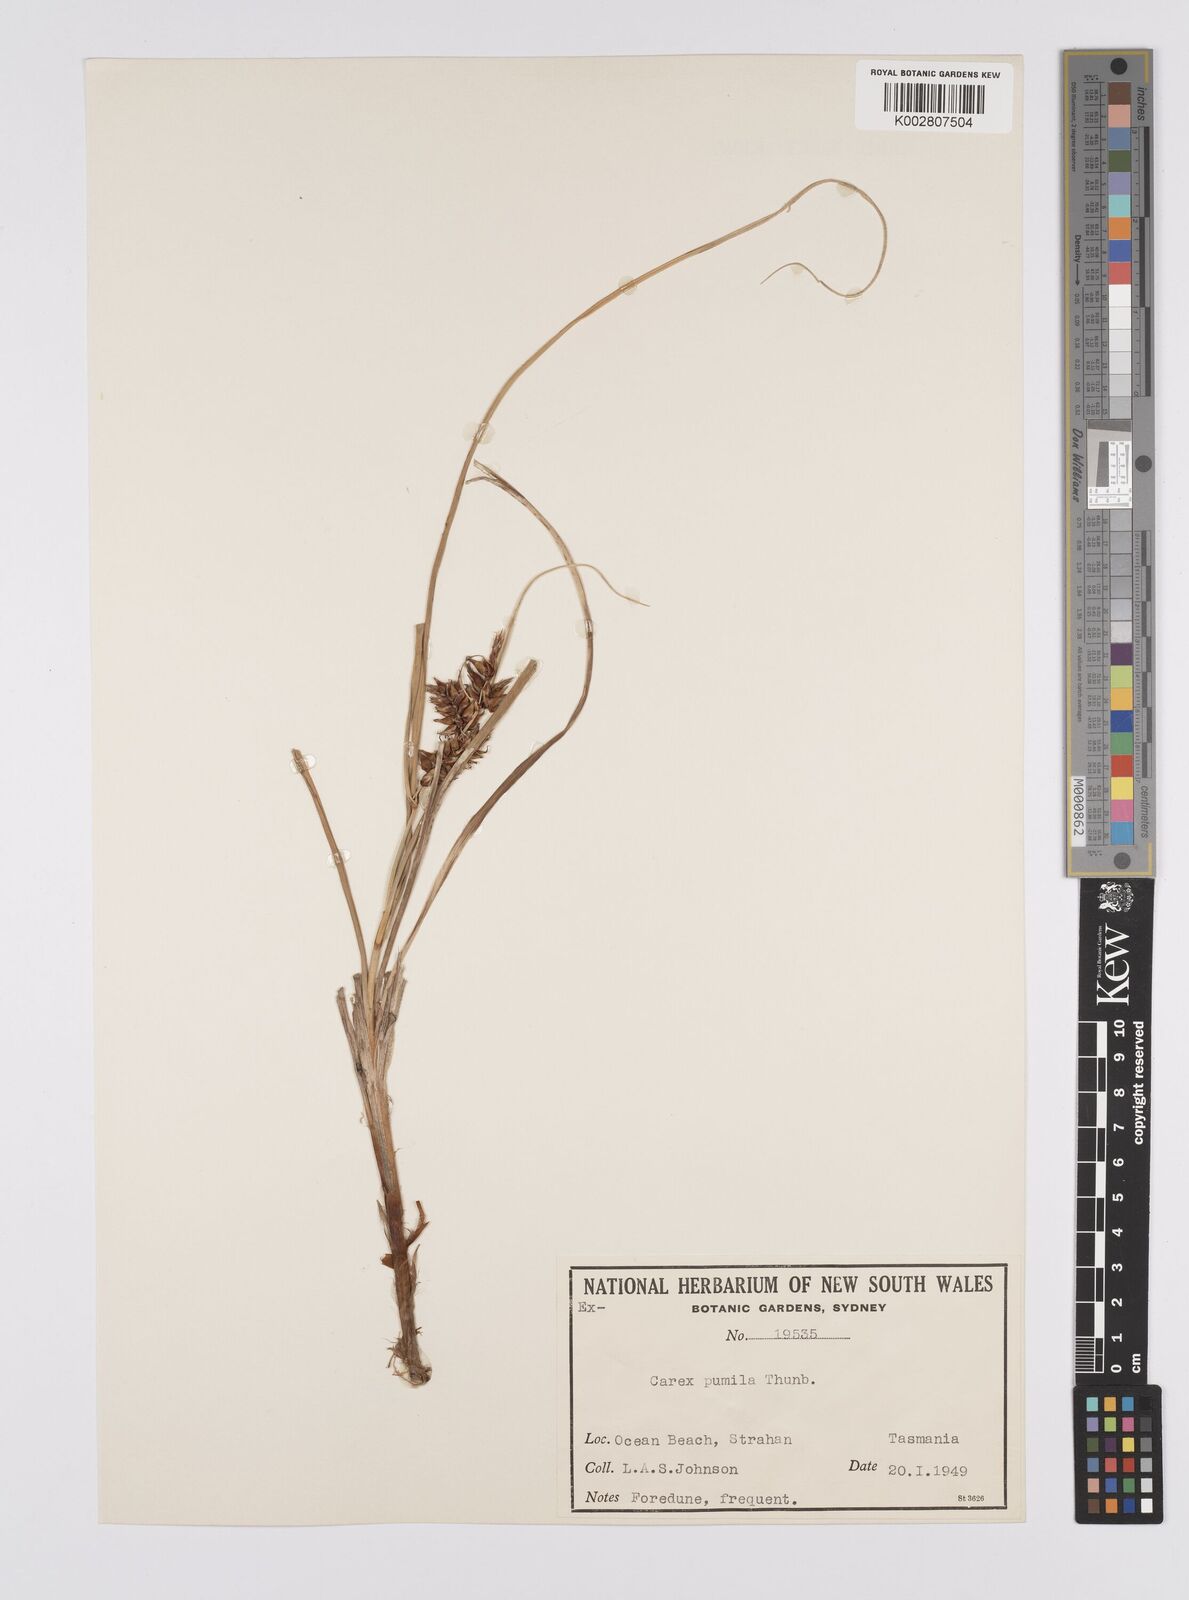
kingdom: Plantae
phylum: Tracheophyta
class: Liliopsida
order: Poales
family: Cyperaceae
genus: Carex
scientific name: Carex pumila
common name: Dwarf sedge
